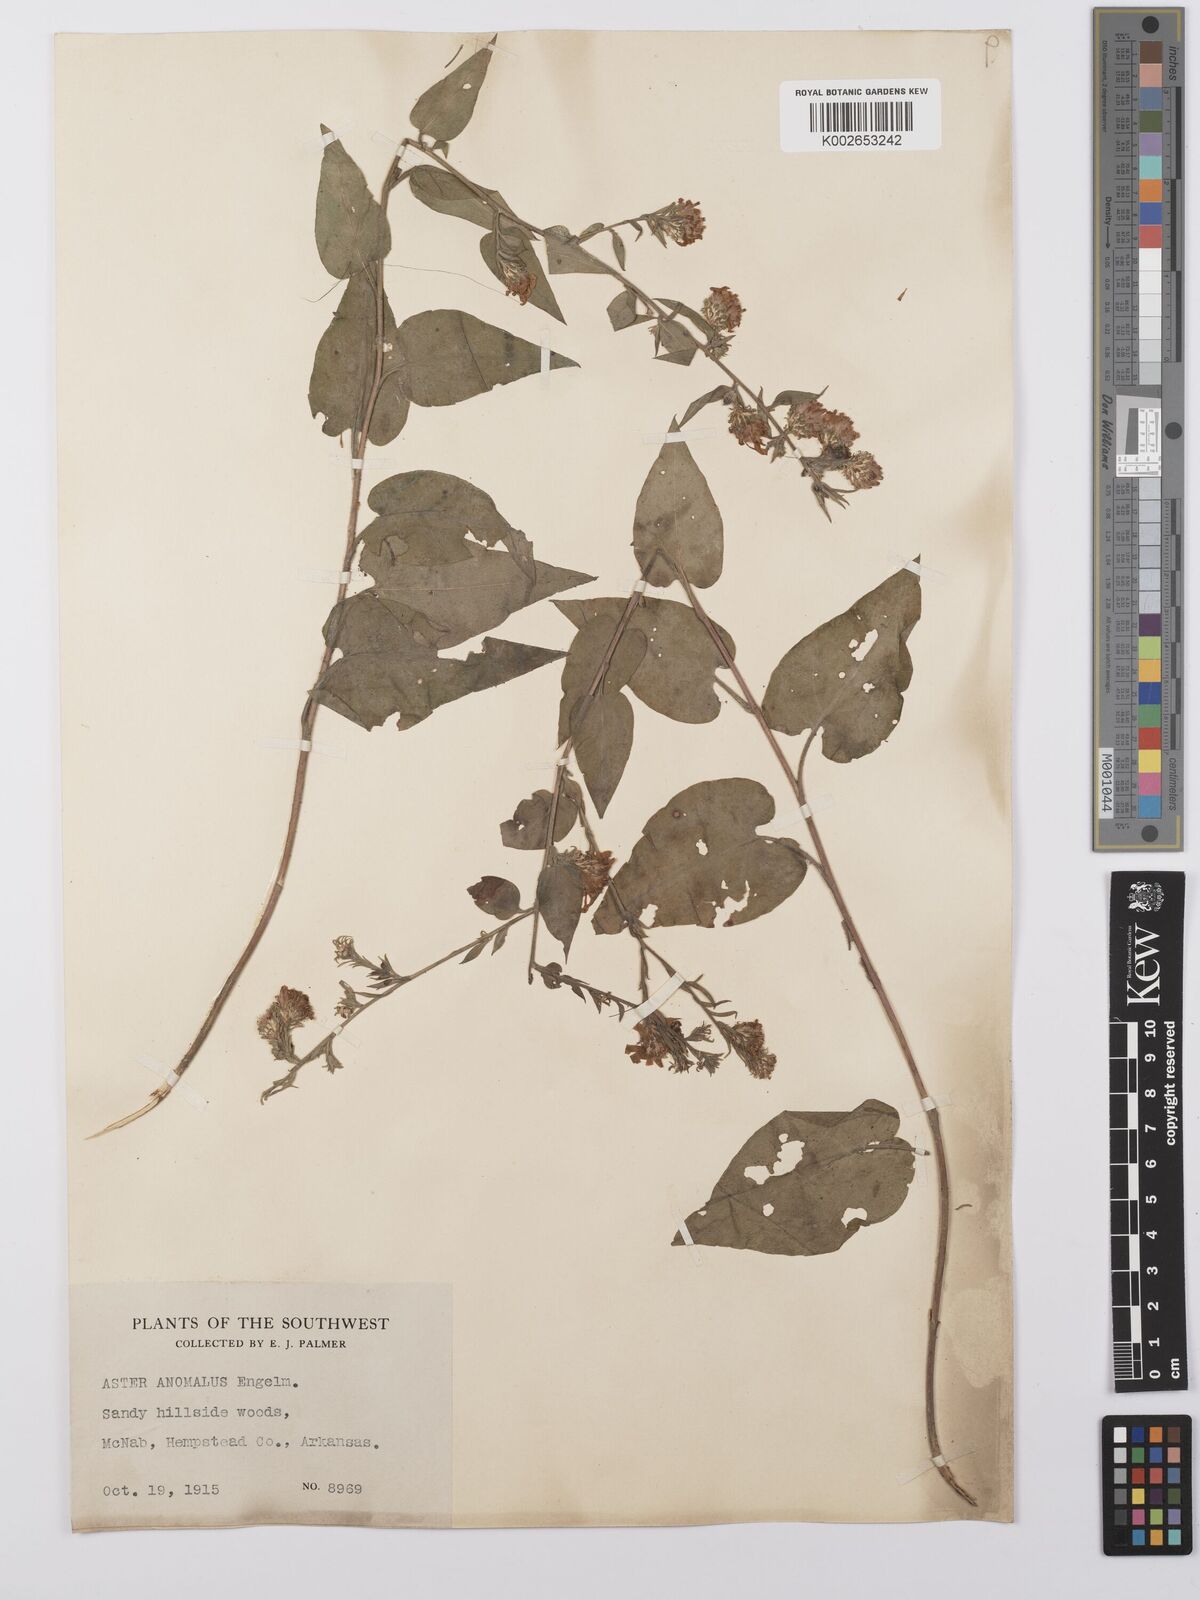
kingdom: Plantae
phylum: Tracheophyta
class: Magnoliopsida
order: Asterales
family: Asteraceae
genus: Symphyotrichum
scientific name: Symphyotrichum anomalum
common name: Many-ray aster
